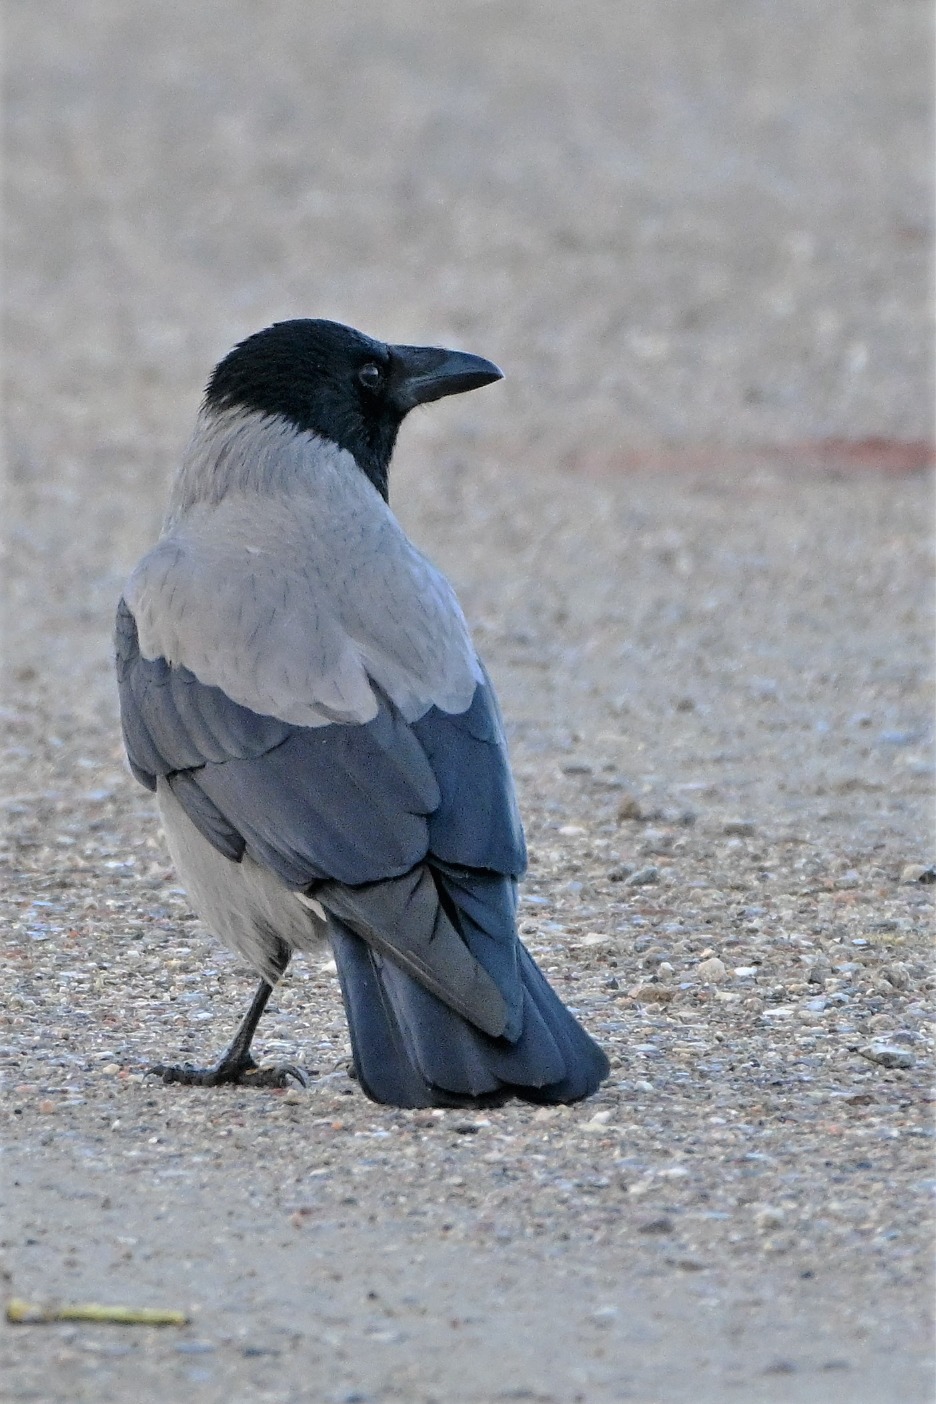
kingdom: Animalia
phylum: Chordata
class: Aves
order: Passeriformes
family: Corvidae
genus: Corvus
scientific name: Corvus cornix
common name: Gråkrage
